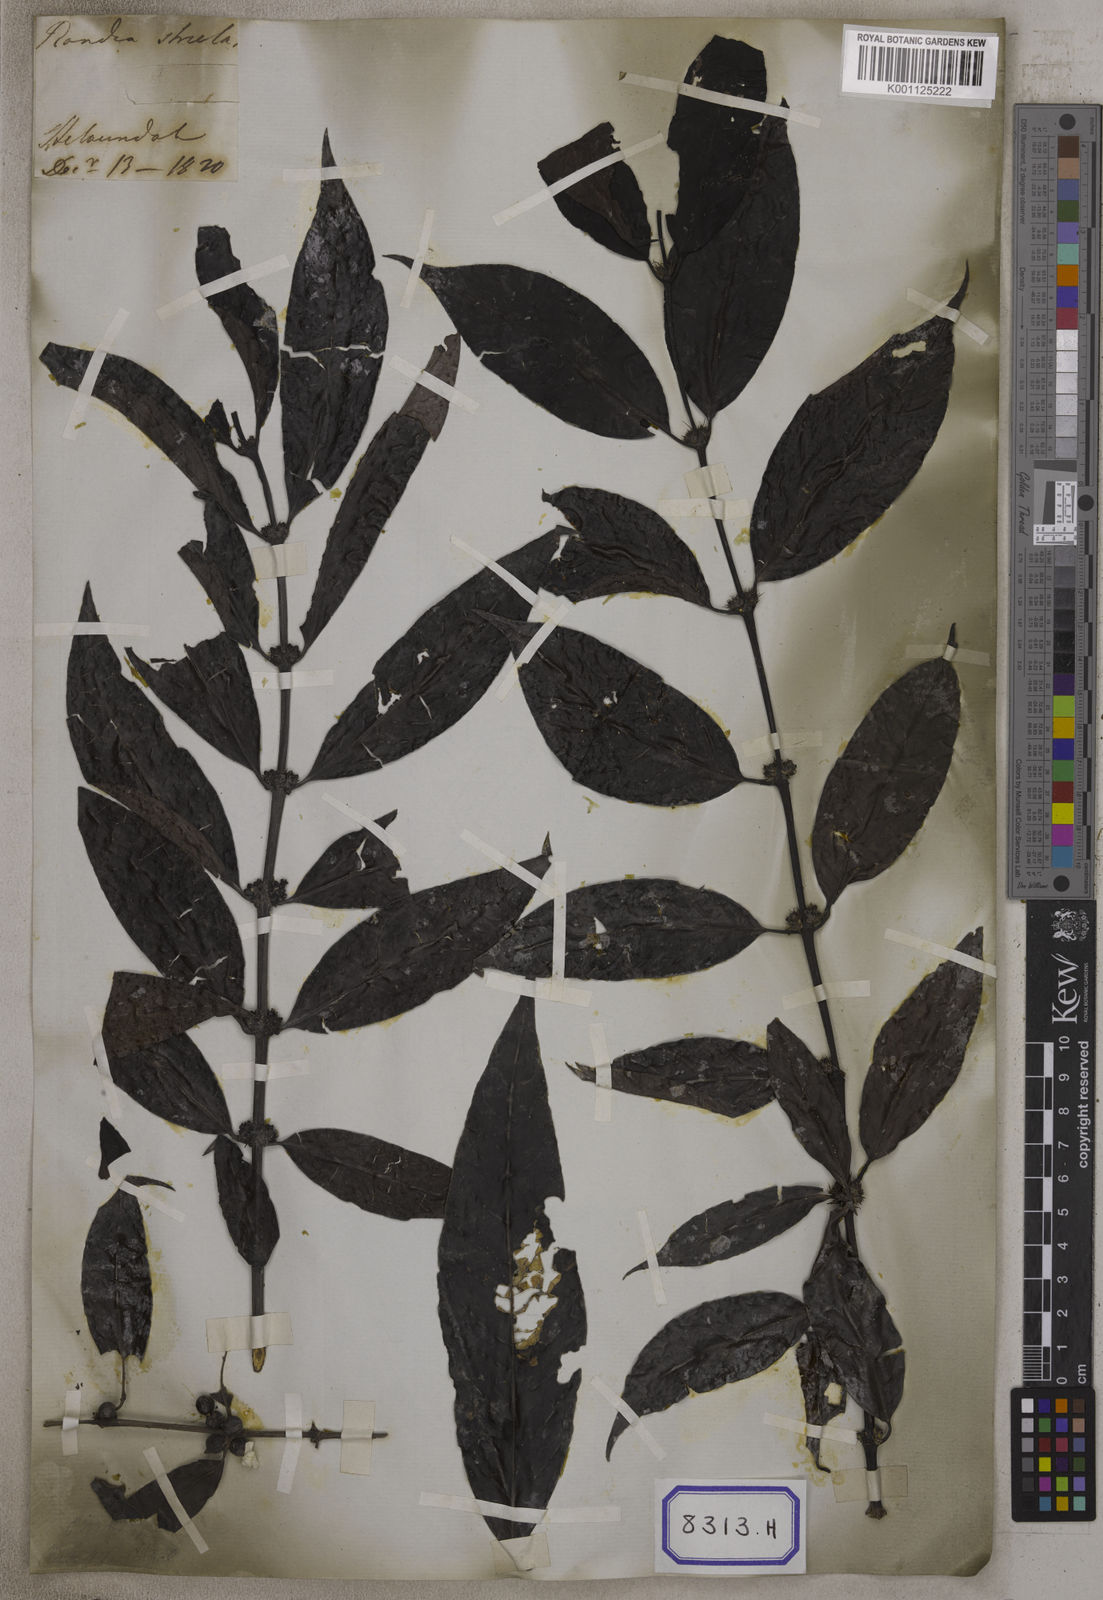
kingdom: Plantae
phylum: Tracheophyta
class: Magnoliopsida
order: Gentianales
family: Rubiaceae
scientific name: Rubiaceae
